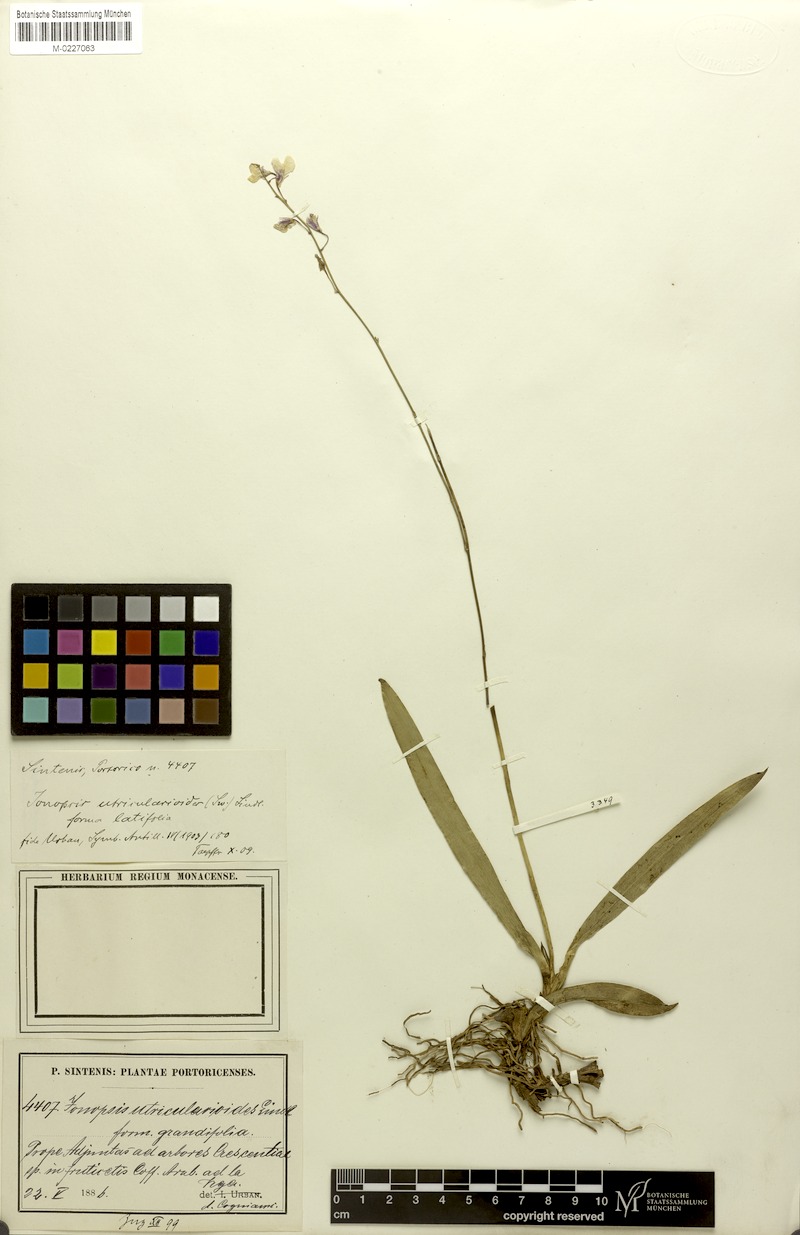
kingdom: Plantae
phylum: Tracheophyta
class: Liliopsida
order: Asparagales
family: Orchidaceae
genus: Ionopsis
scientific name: Ionopsis utricularioides
